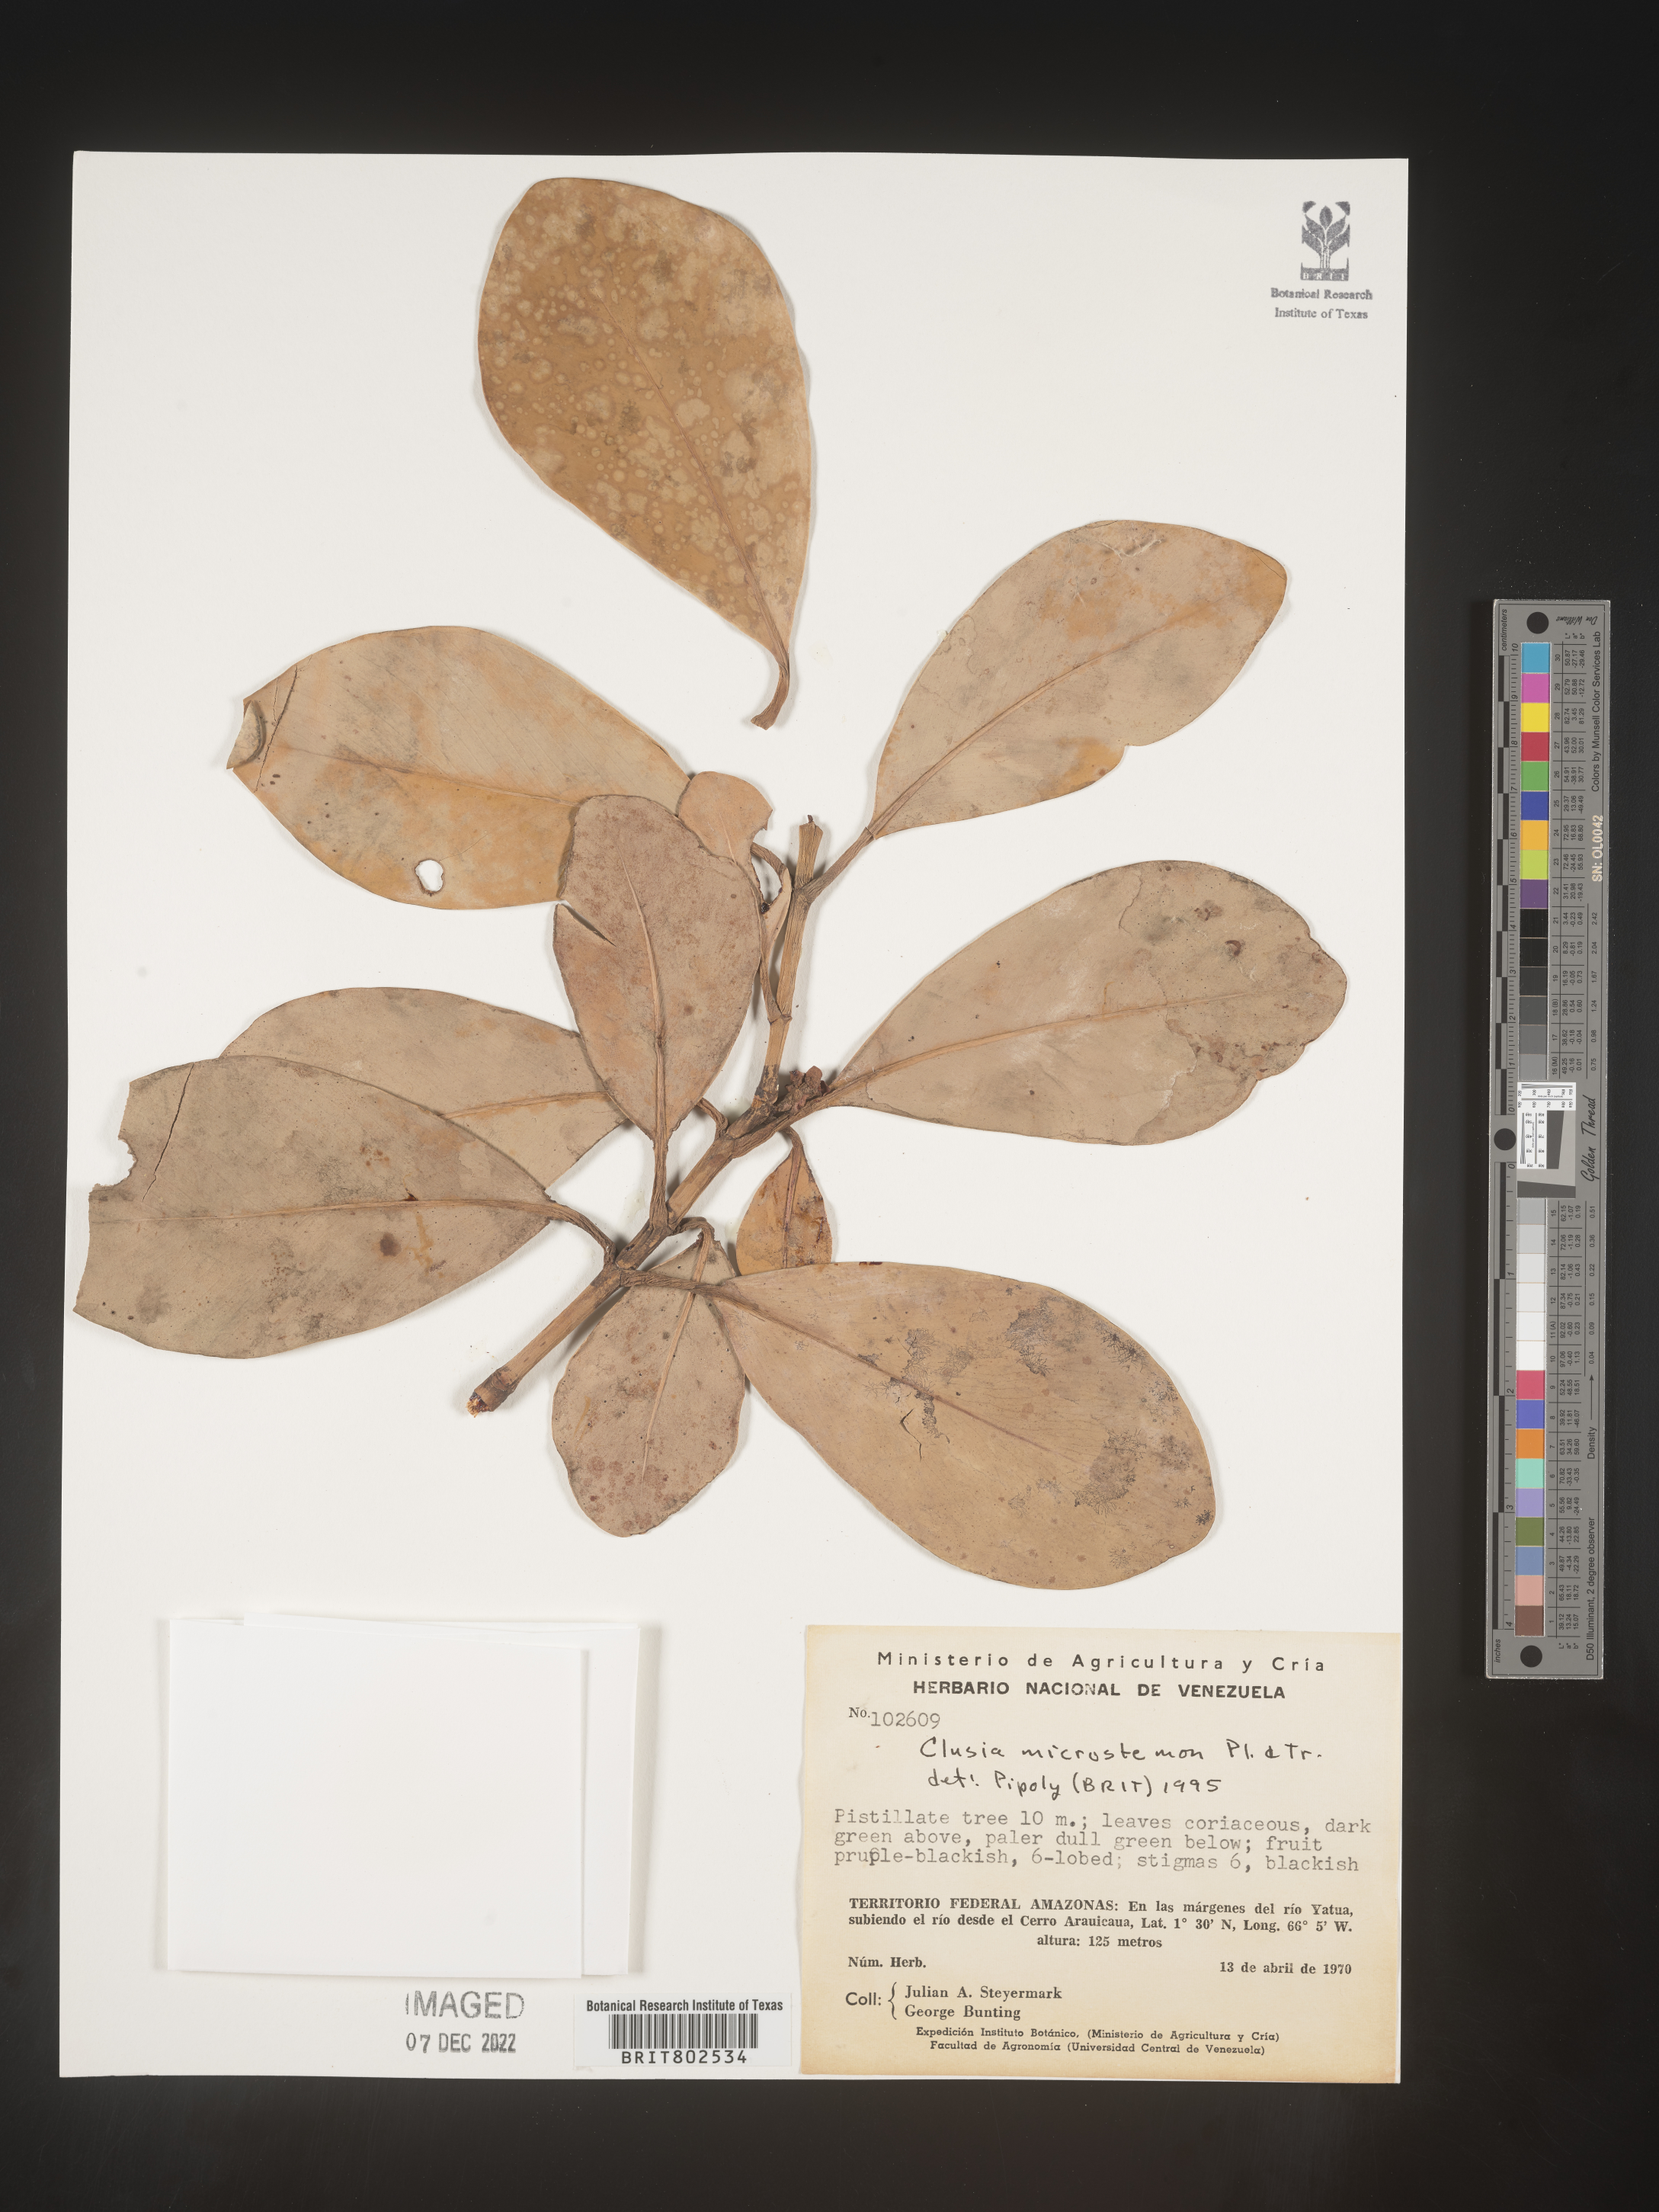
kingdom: Plantae
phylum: Tracheophyta
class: Magnoliopsida
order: Malpighiales
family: Clusiaceae
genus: Clusia
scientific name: Clusia microstemon
